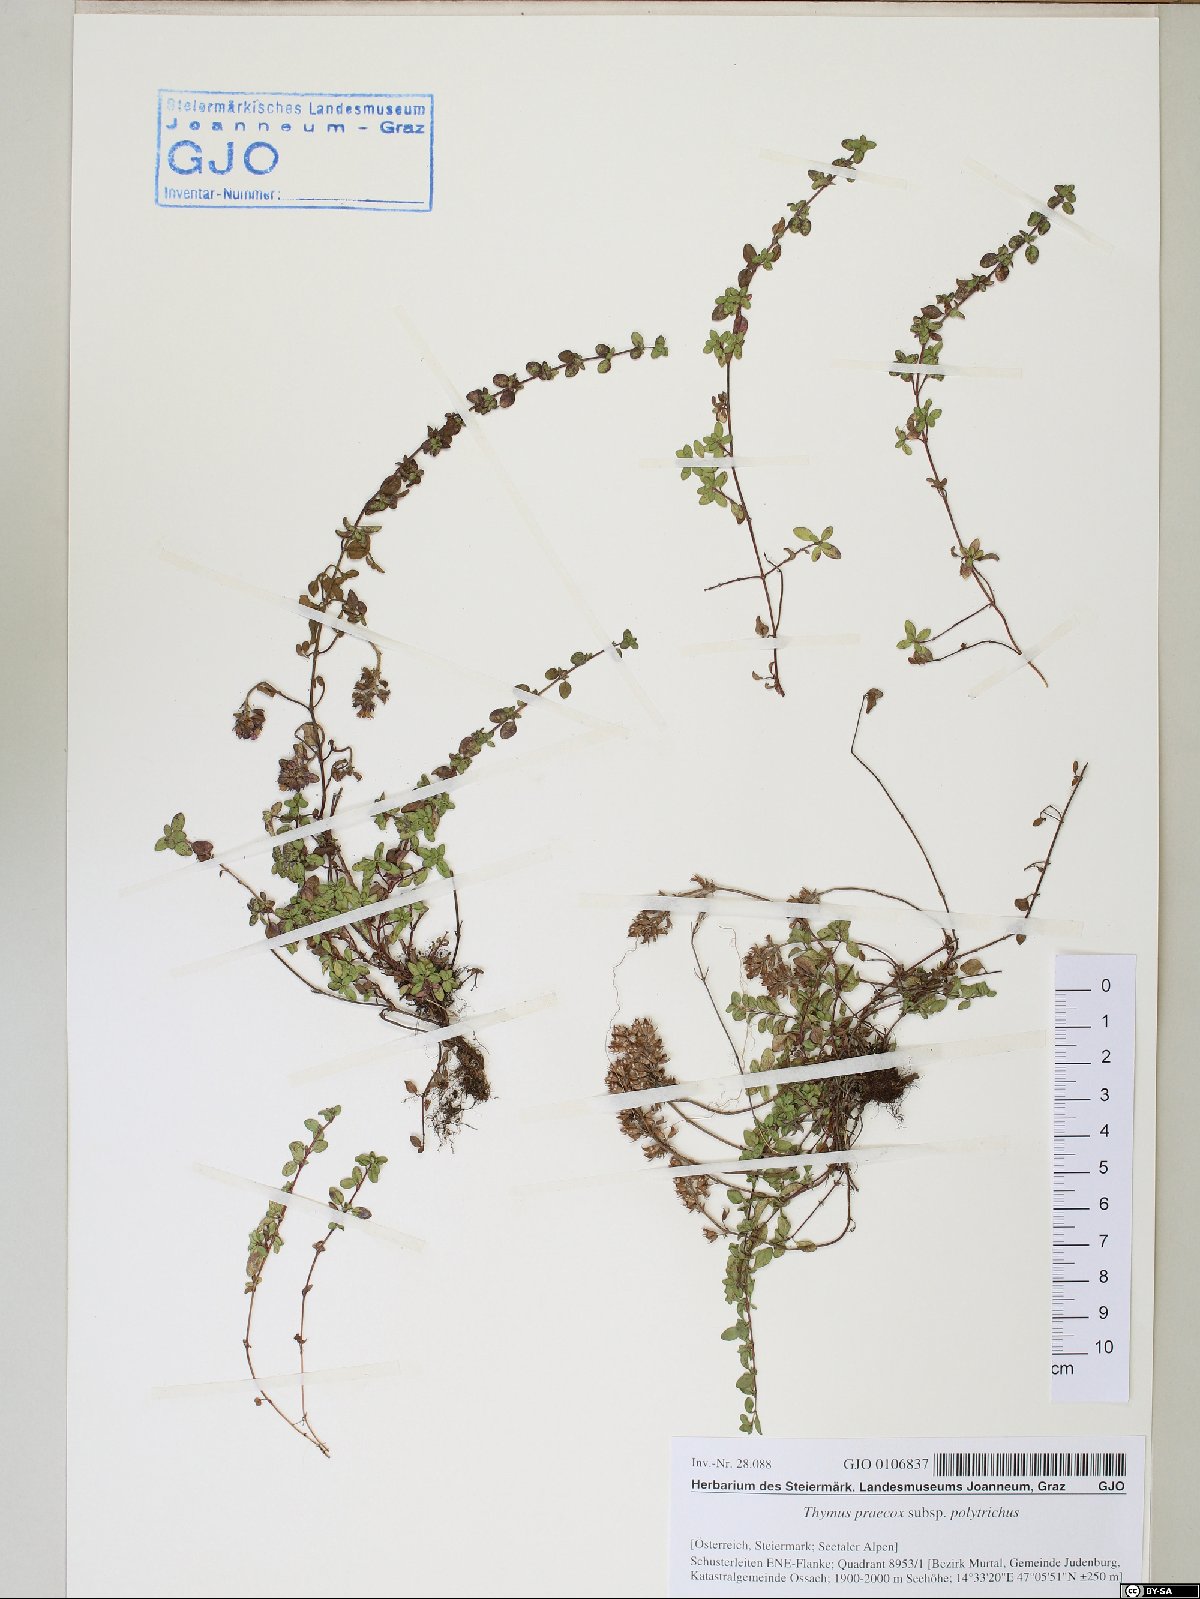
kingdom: Plantae
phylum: Tracheophyta
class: Magnoliopsida
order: Lamiales
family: Lamiaceae
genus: Thymus
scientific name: Thymus praecox
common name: Wild thyme
